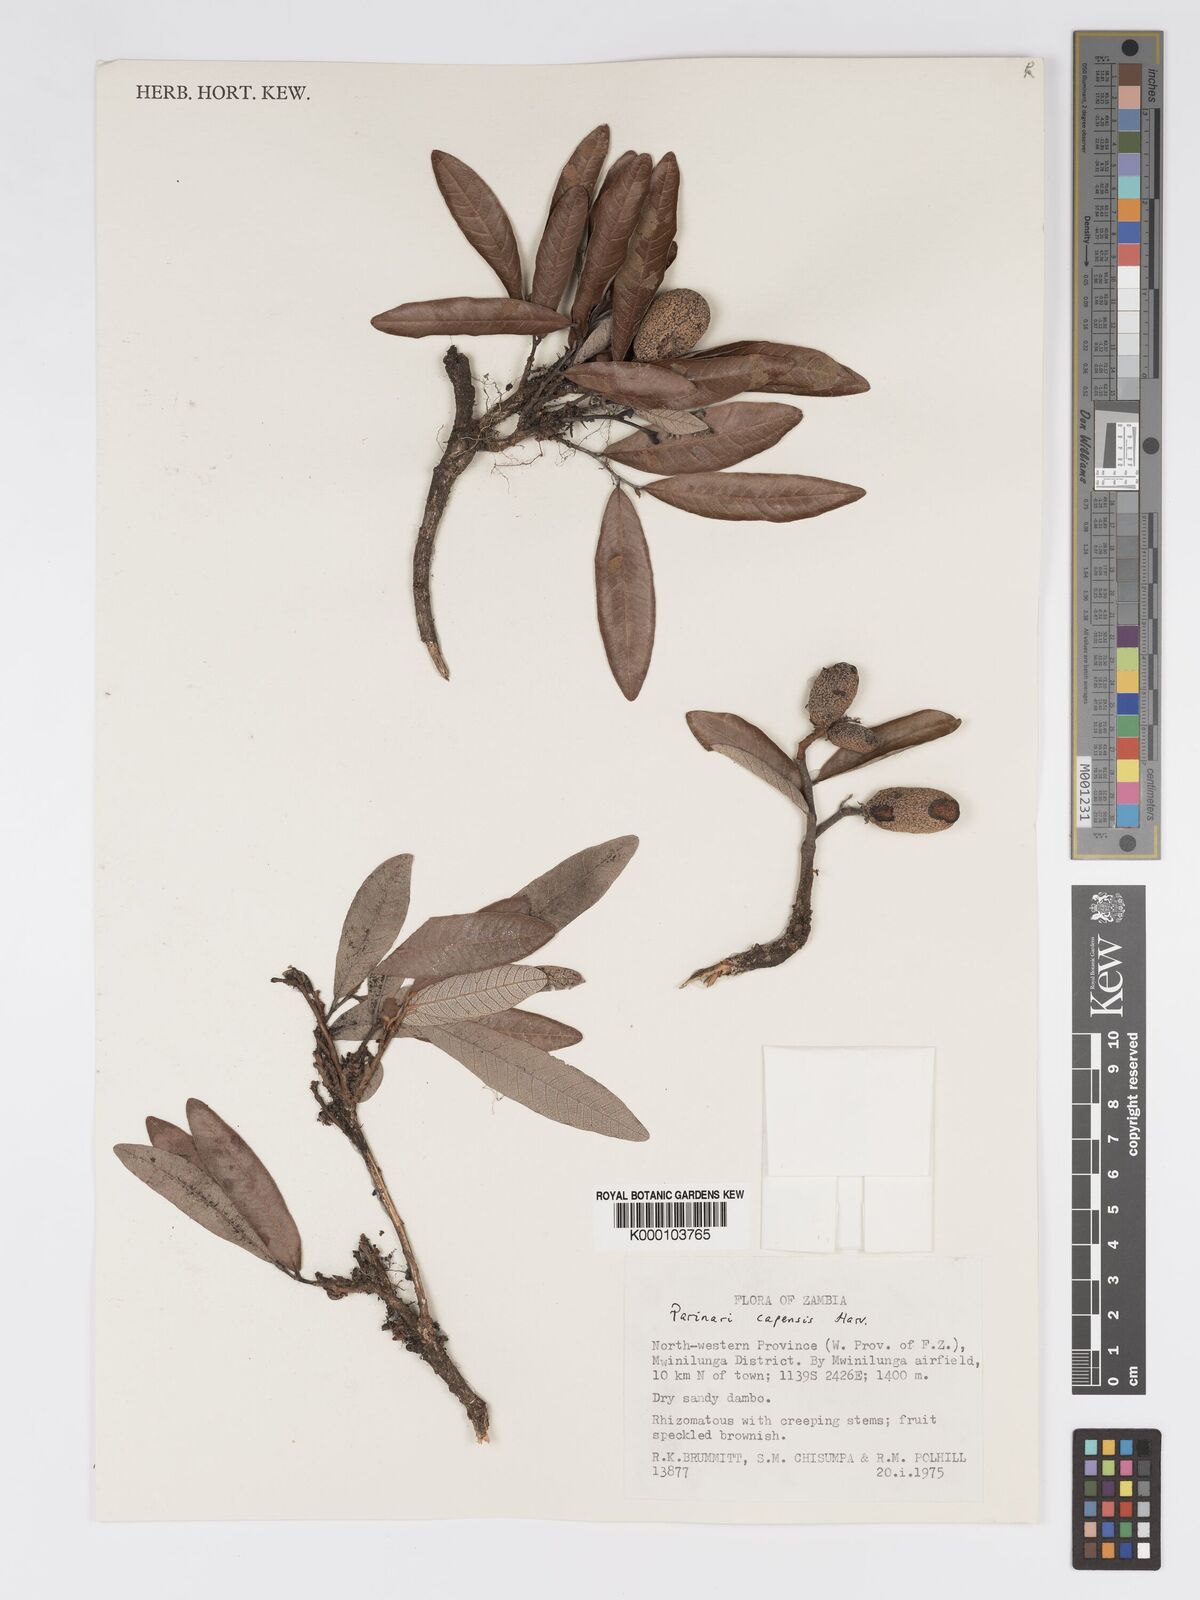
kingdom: Plantae
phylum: Tracheophyta
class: Magnoliopsida
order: Malpighiales
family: Chrysobalanaceae
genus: Parinari
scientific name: Parinari capensis
